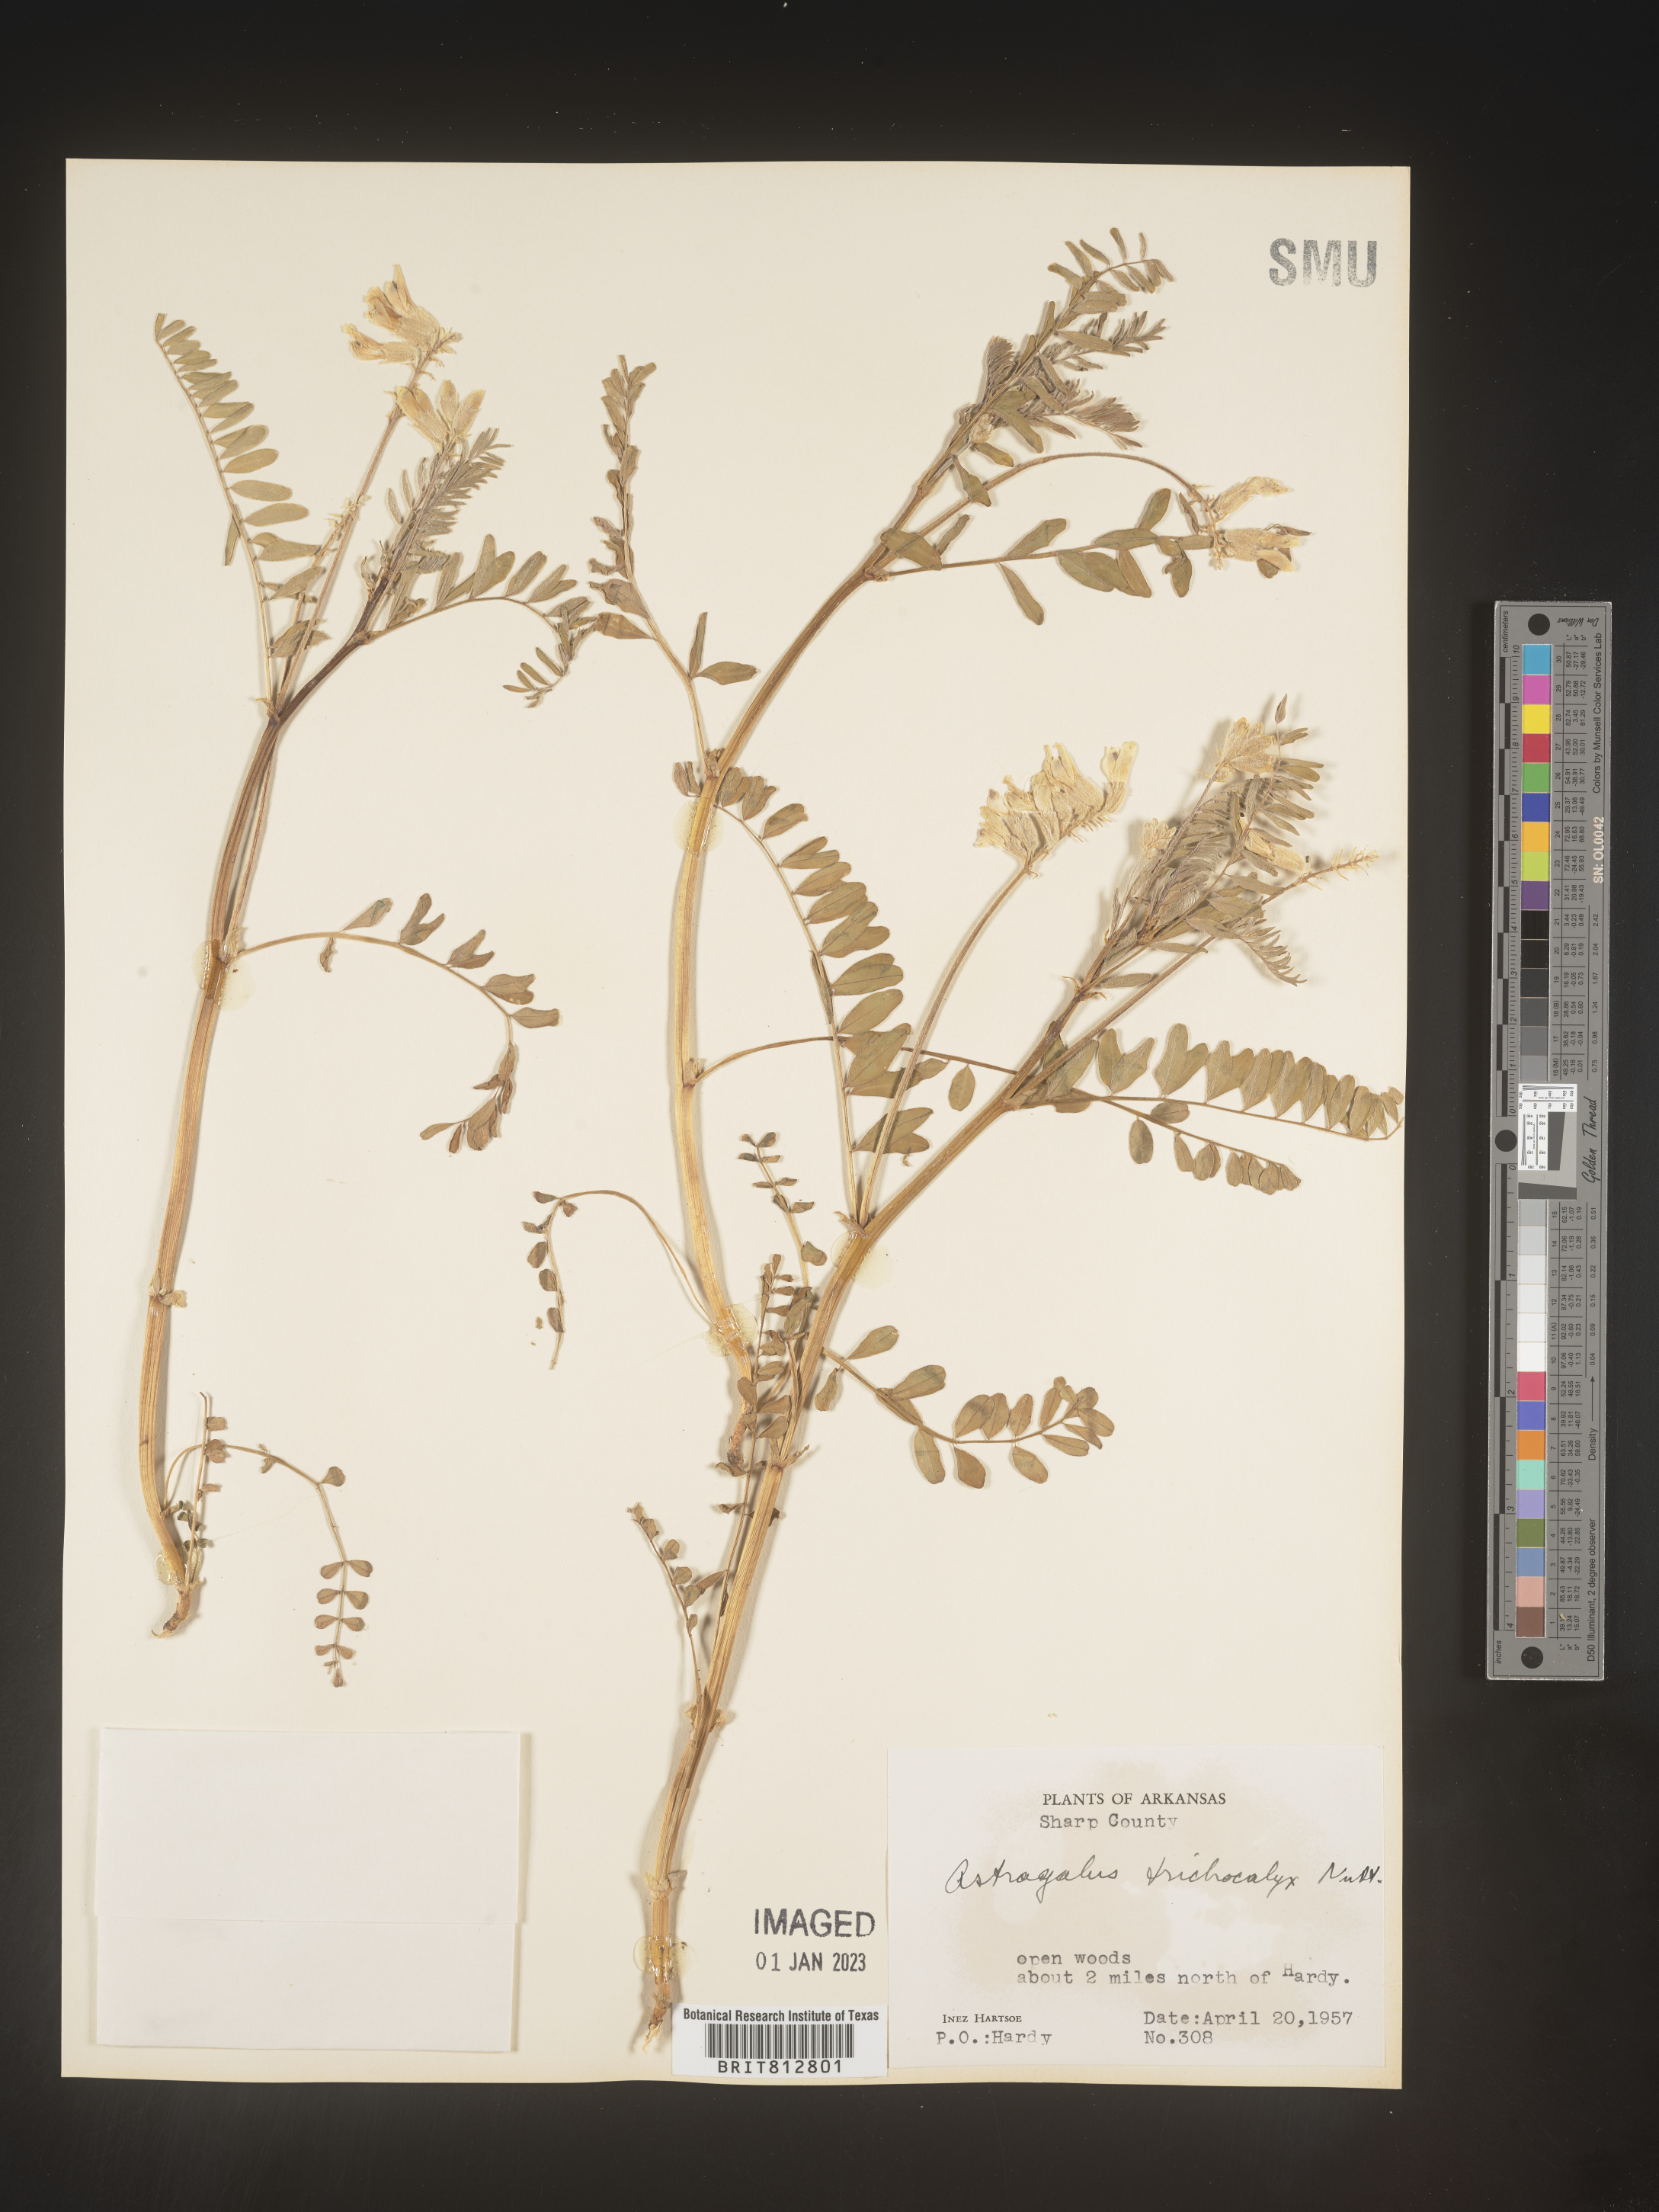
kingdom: Plantae
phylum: Tracheophyta
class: Magnoliopsida
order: Fabales
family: Fabaceae
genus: Astragalus
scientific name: Astragalus petropolitanus
